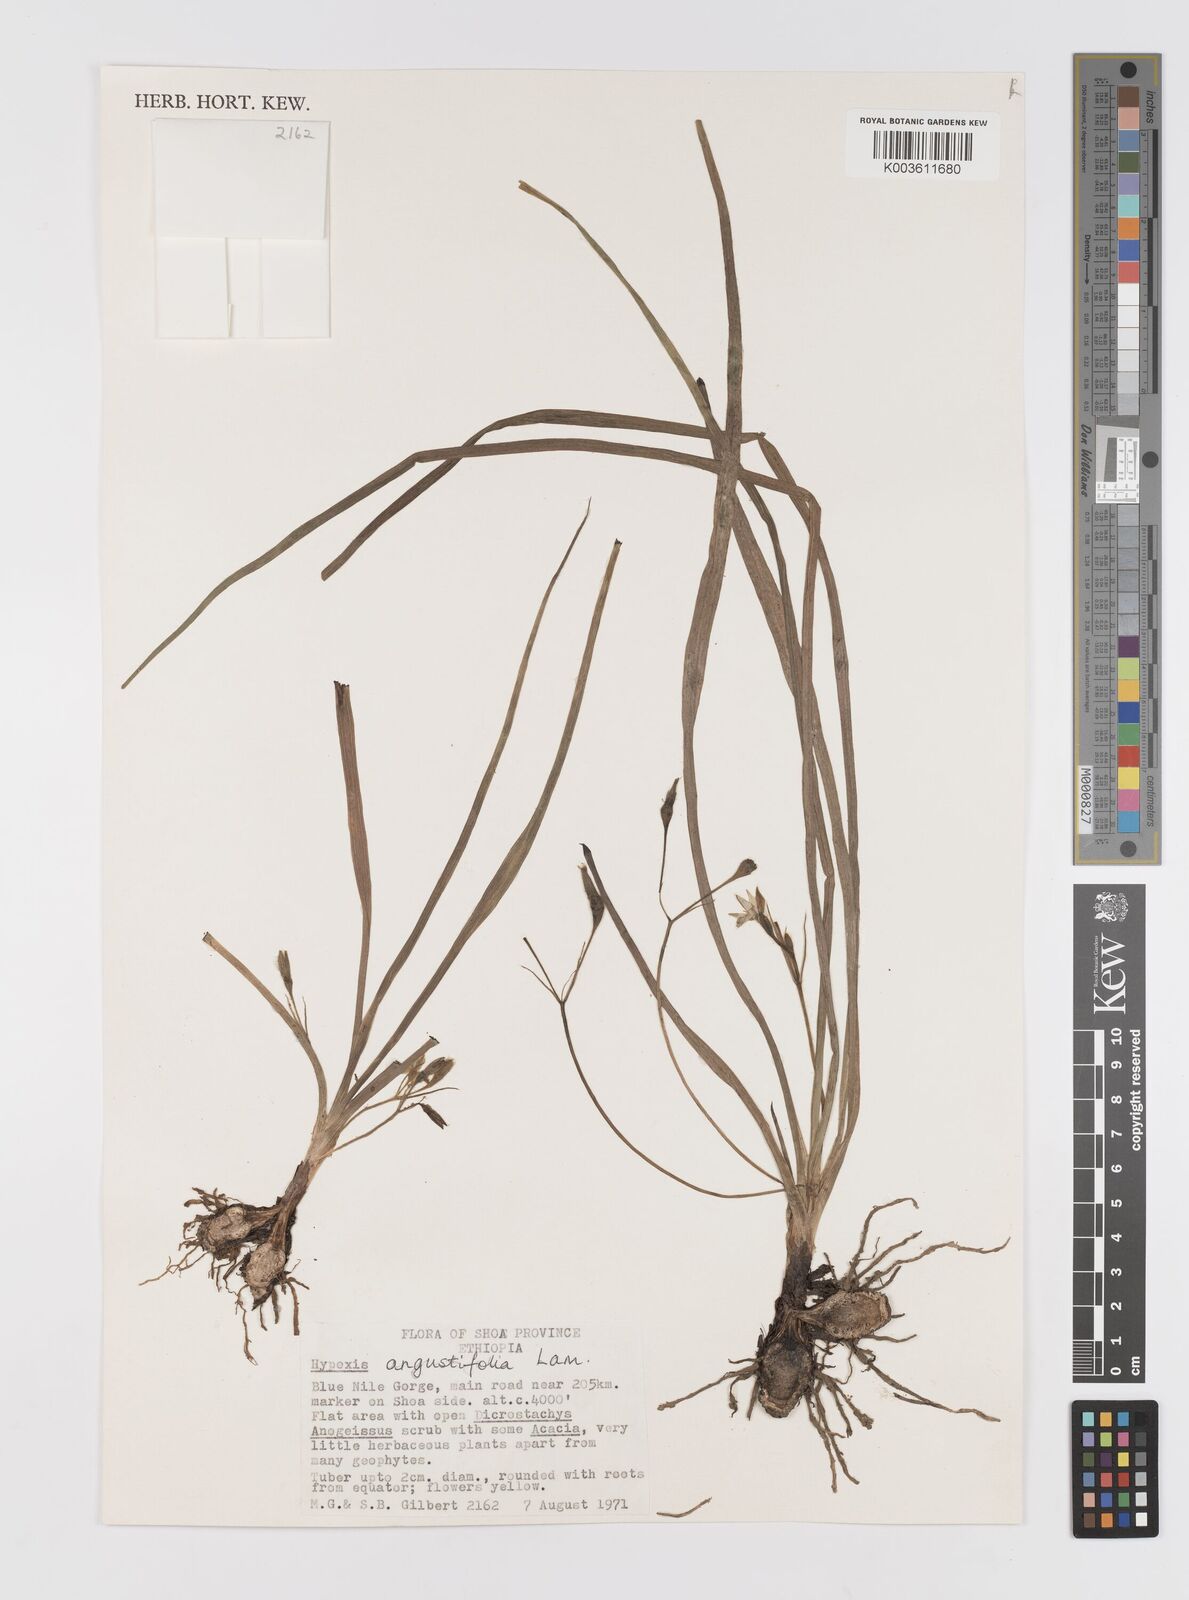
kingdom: Plantae
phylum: Tracheophyta
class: Liliopsida
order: Asparagales
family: Hypoxidaceae
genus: Hypoxis
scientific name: Hypoxis angustifolia
